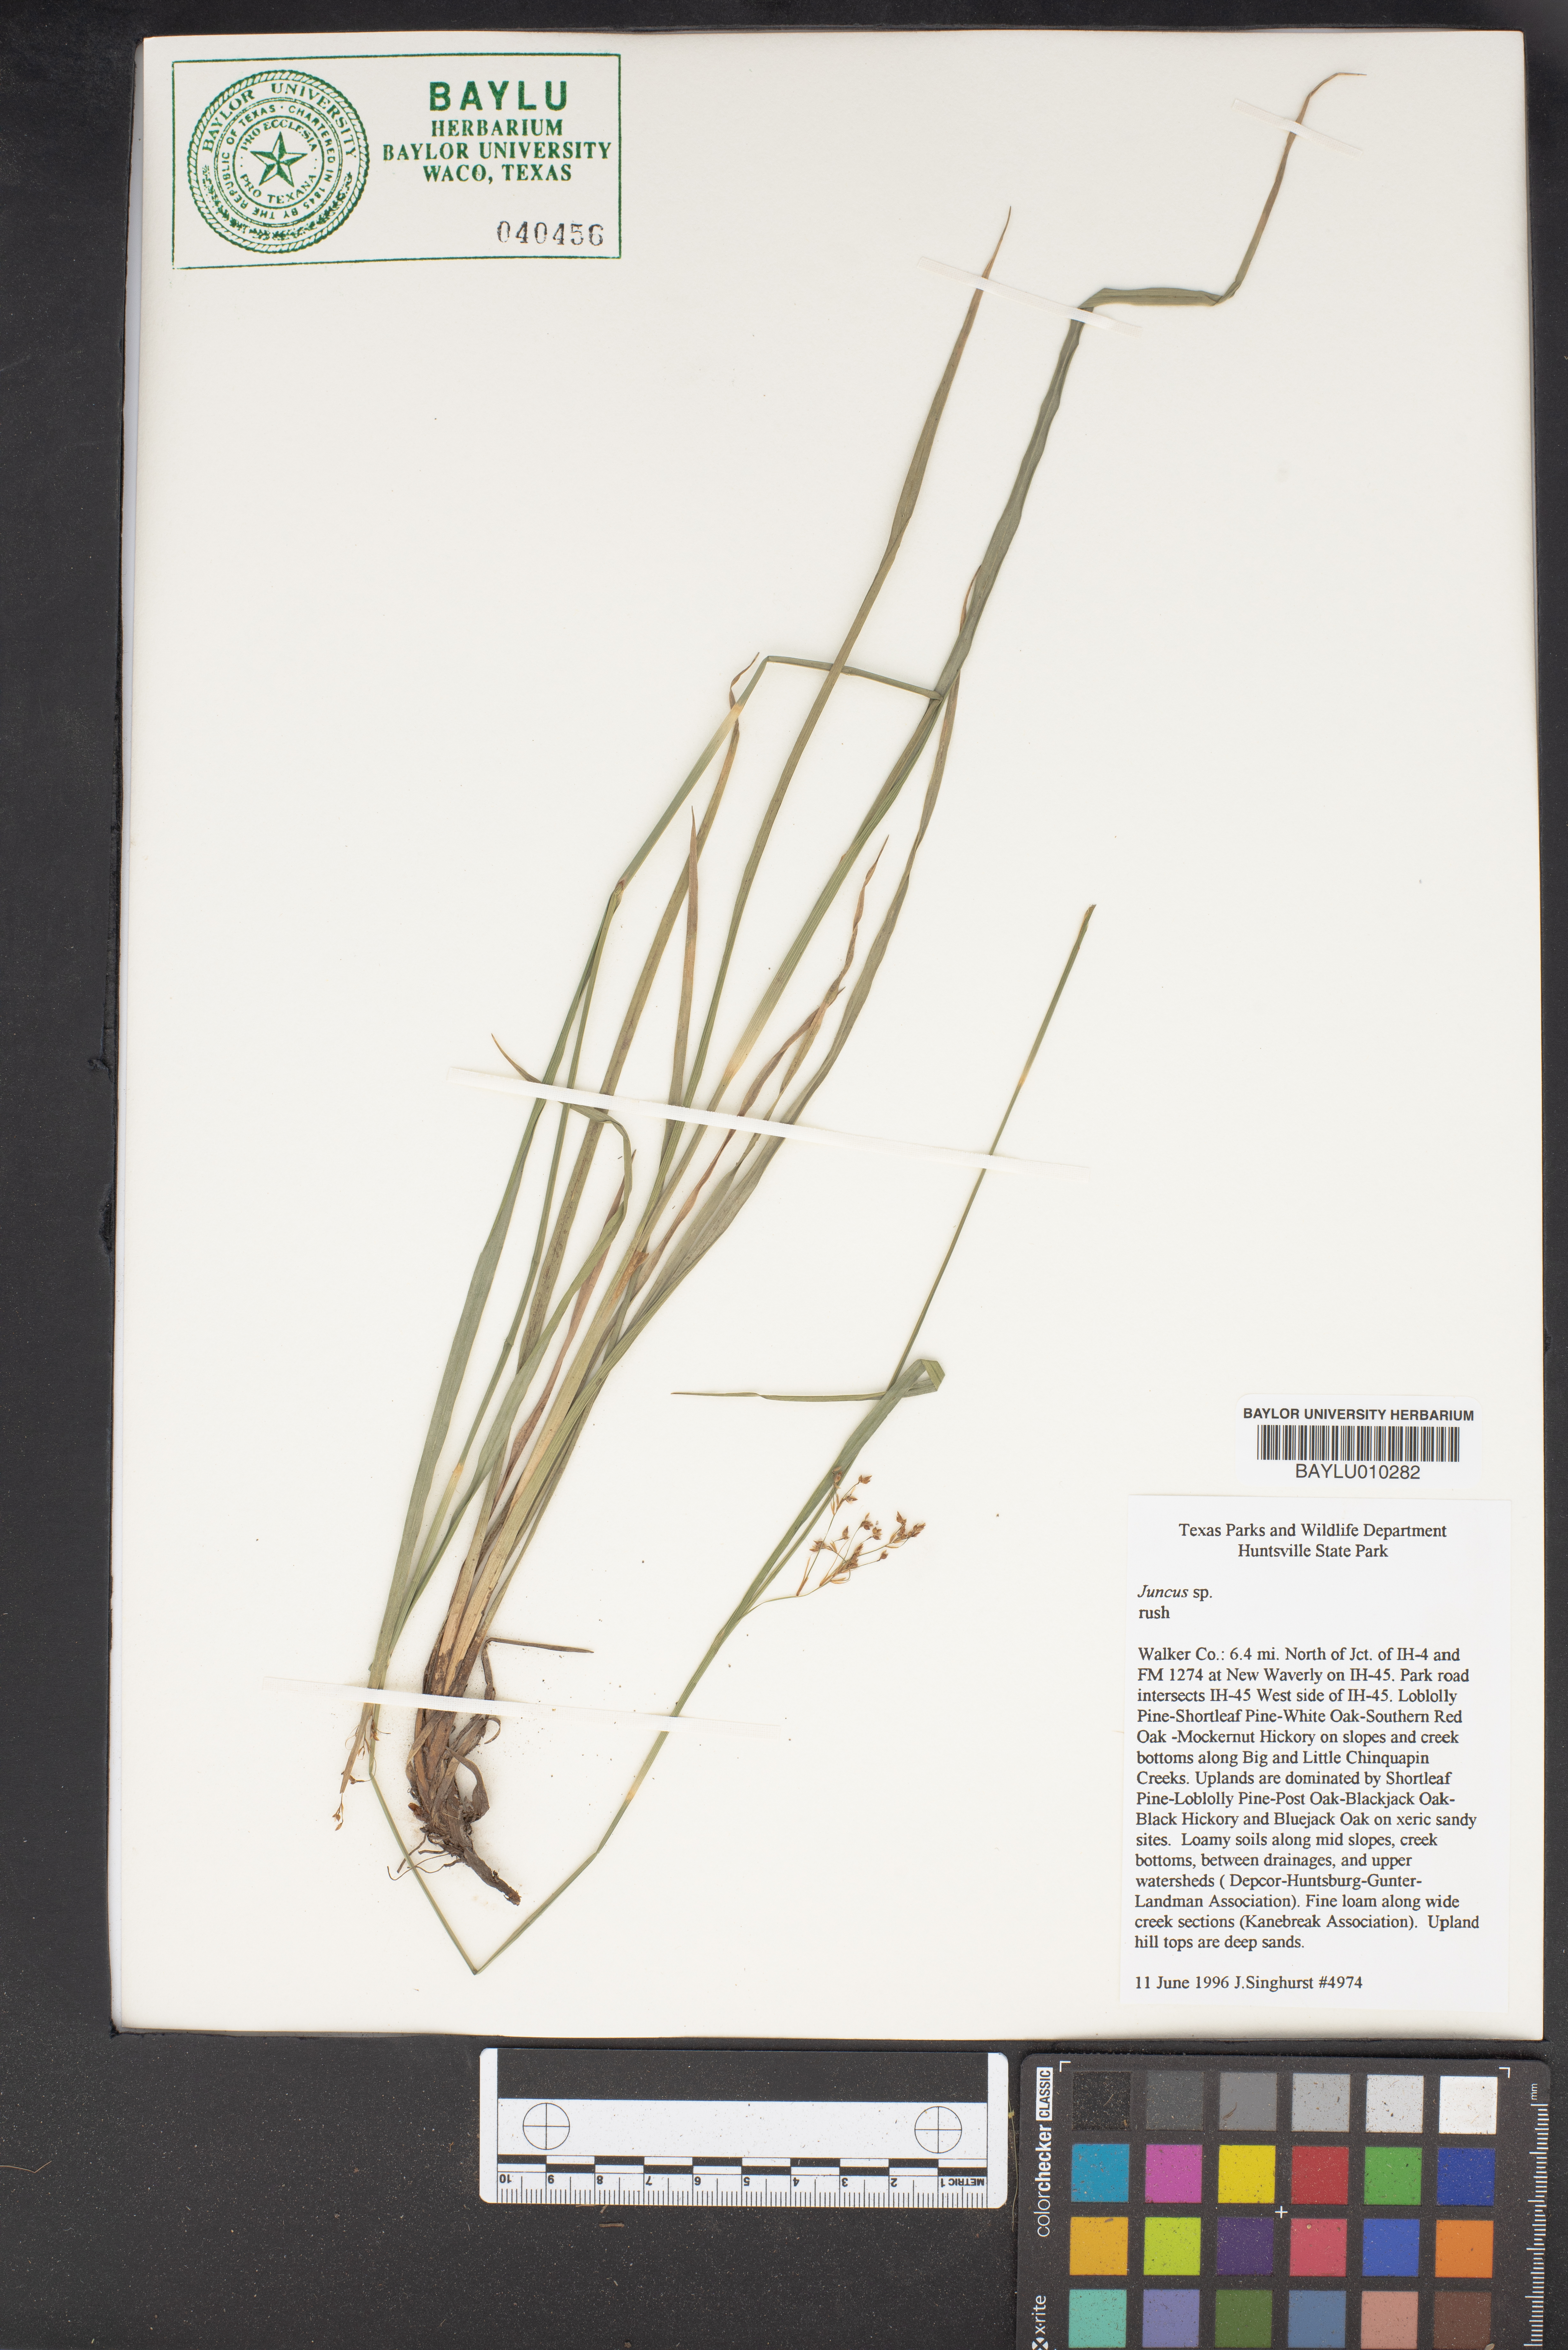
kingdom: Plantae
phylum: Tracheophyta
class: Liliopsida
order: Poales
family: Juncaceae
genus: Juncus
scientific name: Juncus
